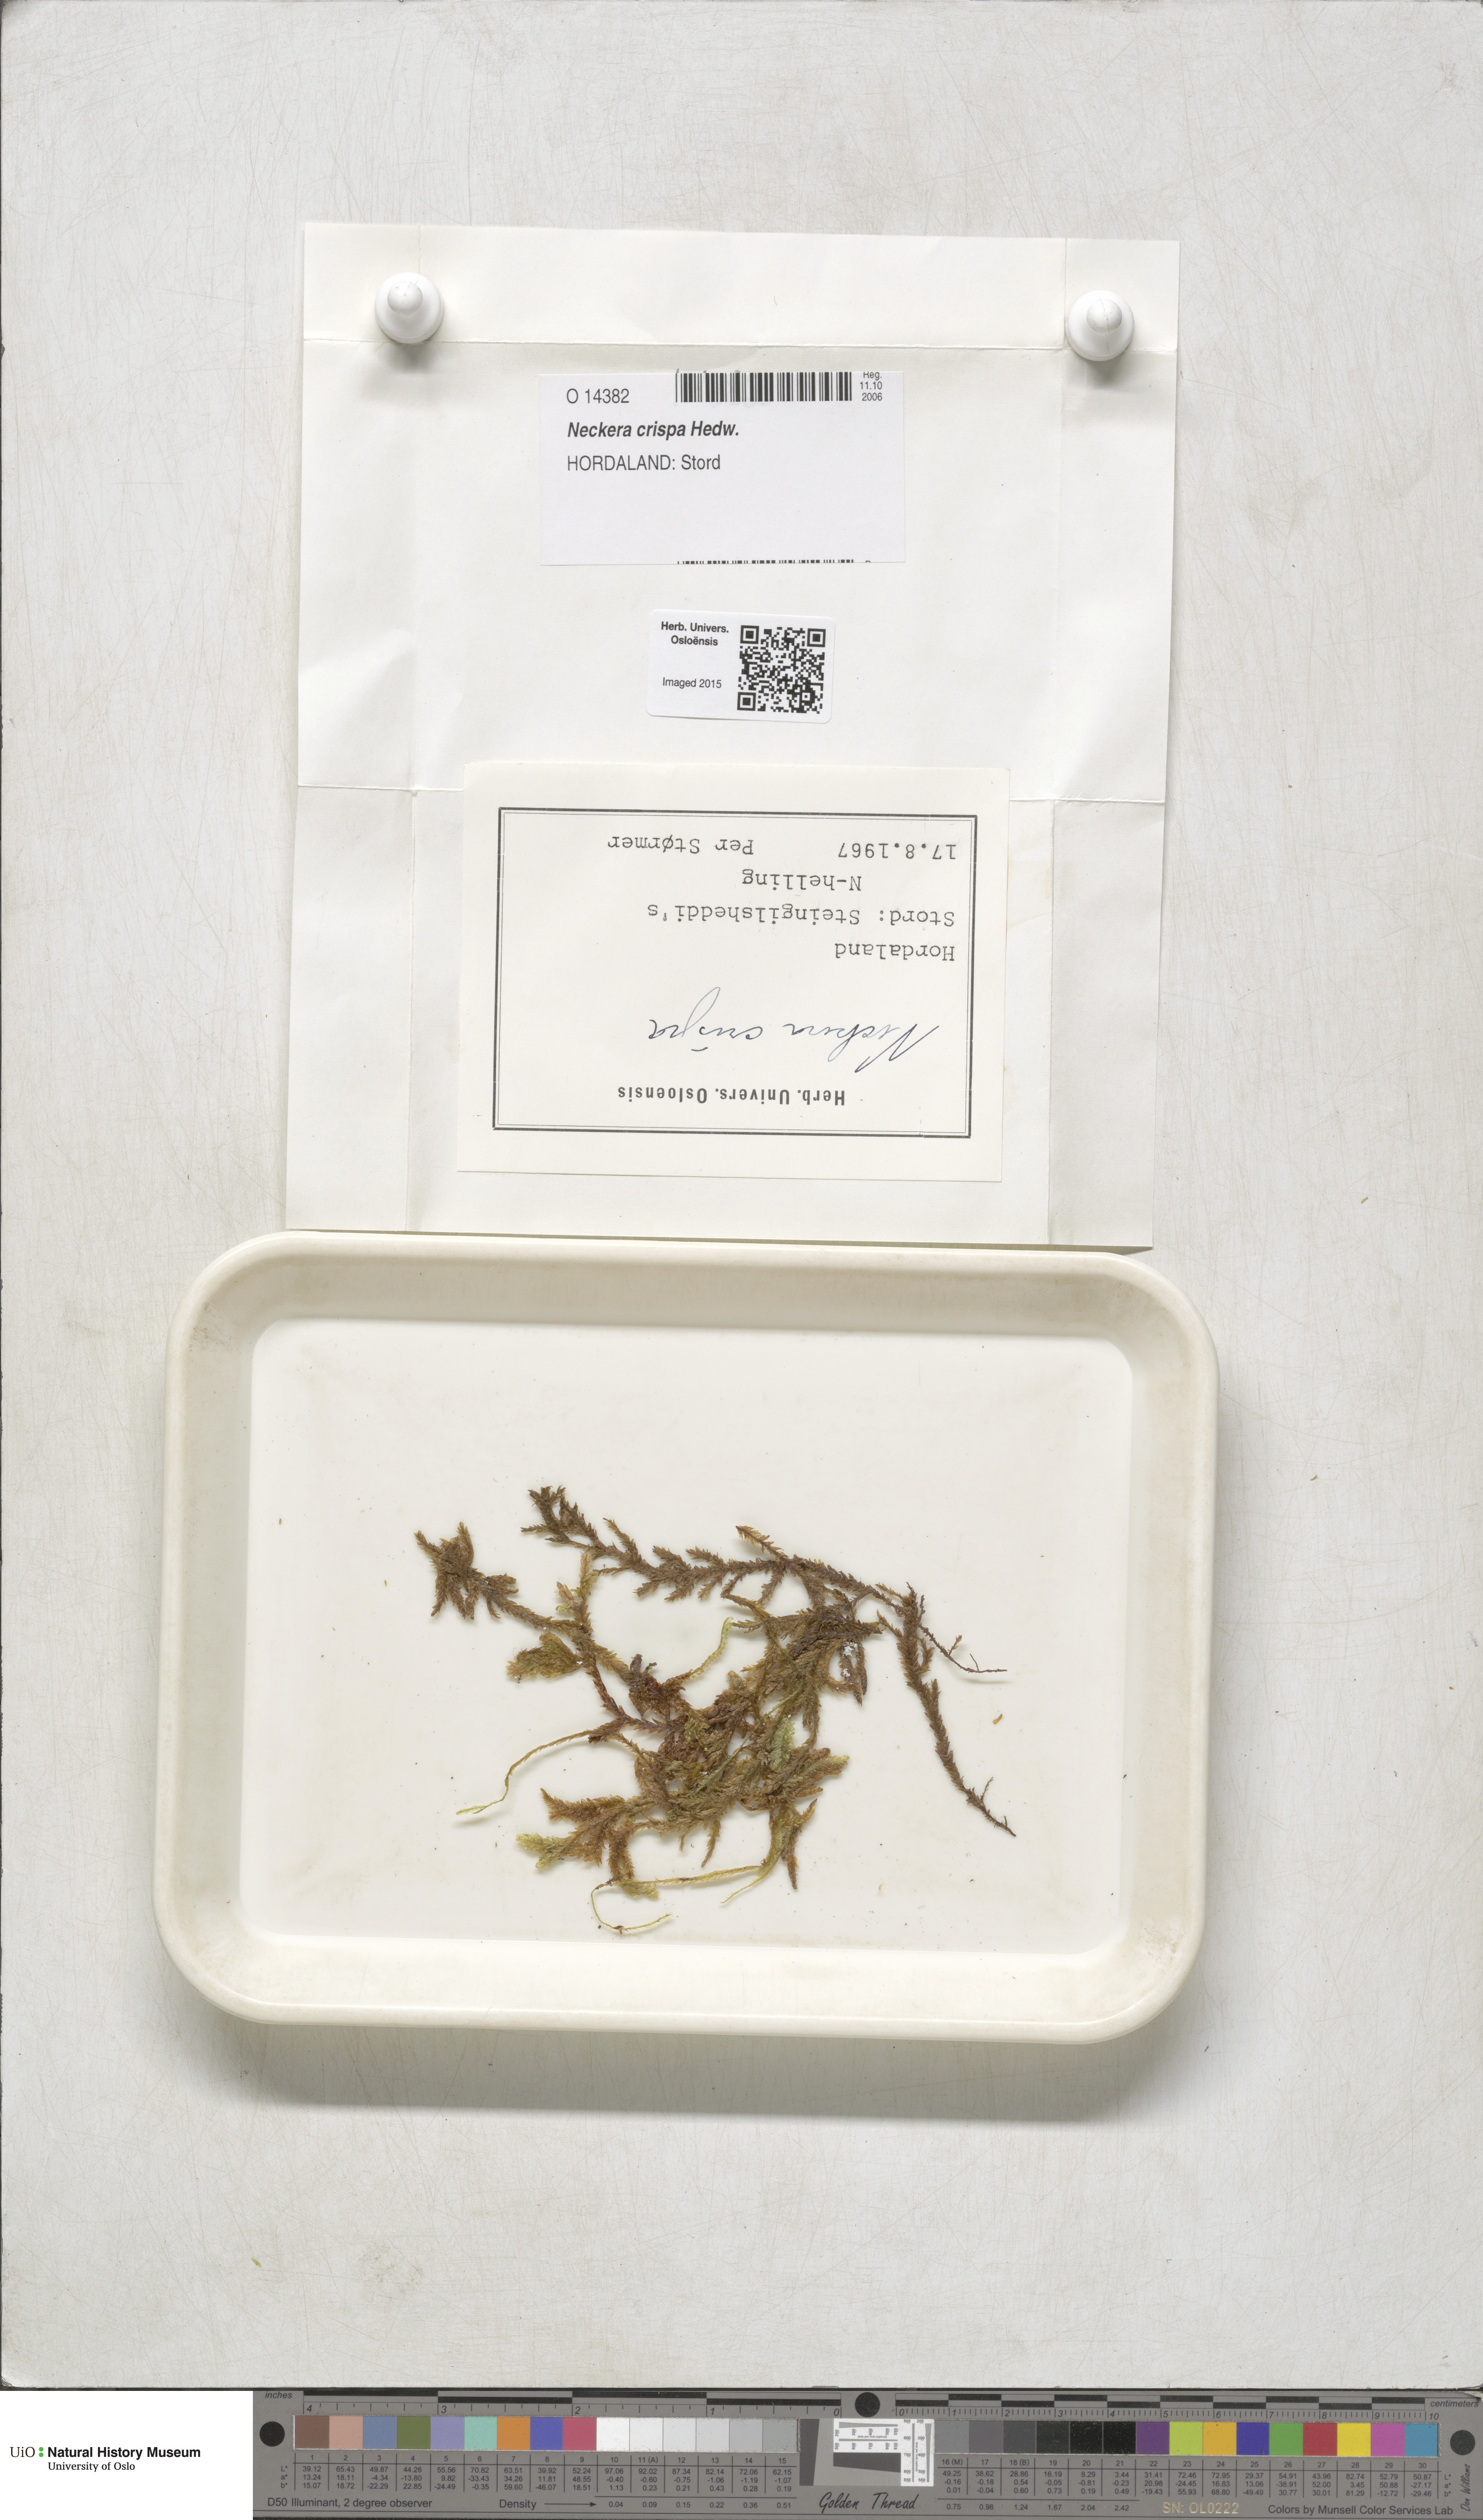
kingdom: Plantae
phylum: Bryophyta
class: Bryopsida
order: Hypnales
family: Neckeraceae
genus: Exsertotheca
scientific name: Exsertotheca crispa
